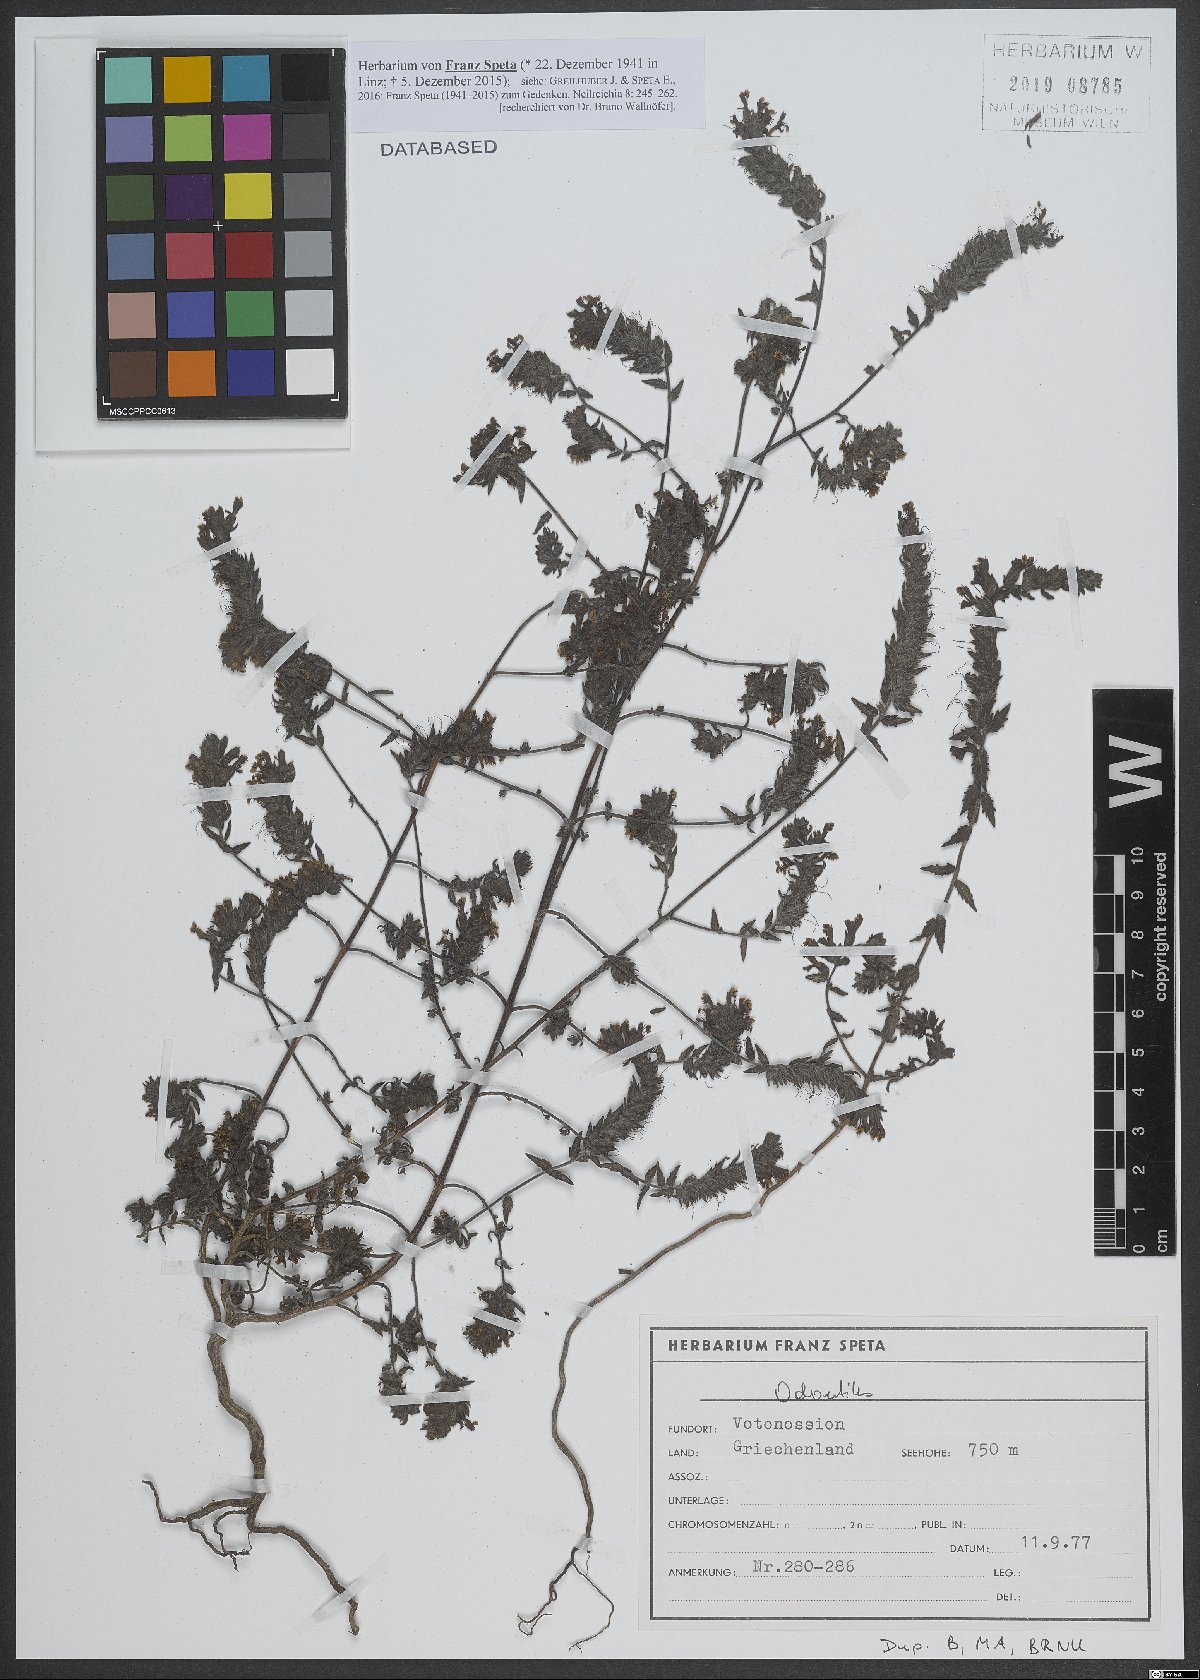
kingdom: Plantae
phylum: Tracheophyta
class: Magnoliopsida
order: Lamiales
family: Orobanchaceae
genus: Odontites
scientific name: Odontites
